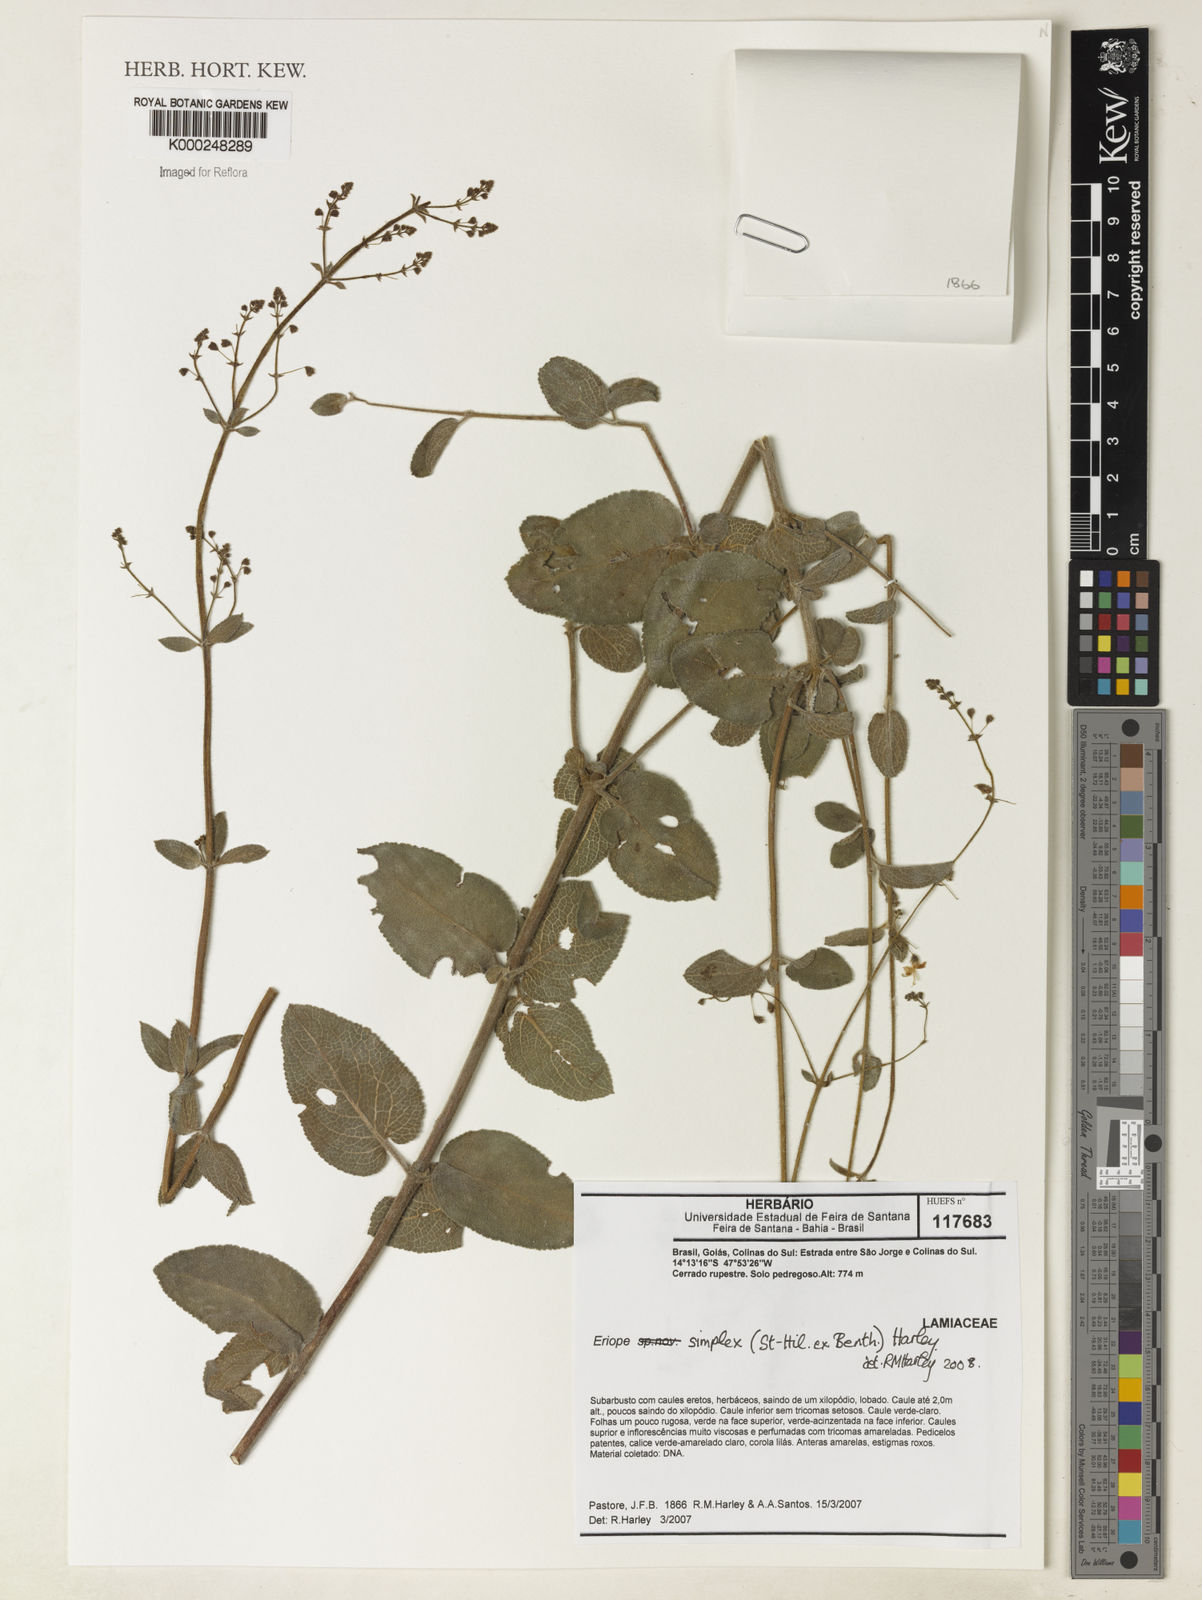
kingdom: Plantae
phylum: Tracheophyta
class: Magnoliopsida
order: Lamiales
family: Lamiaceae
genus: Hypenia
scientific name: Hypenia simplex
